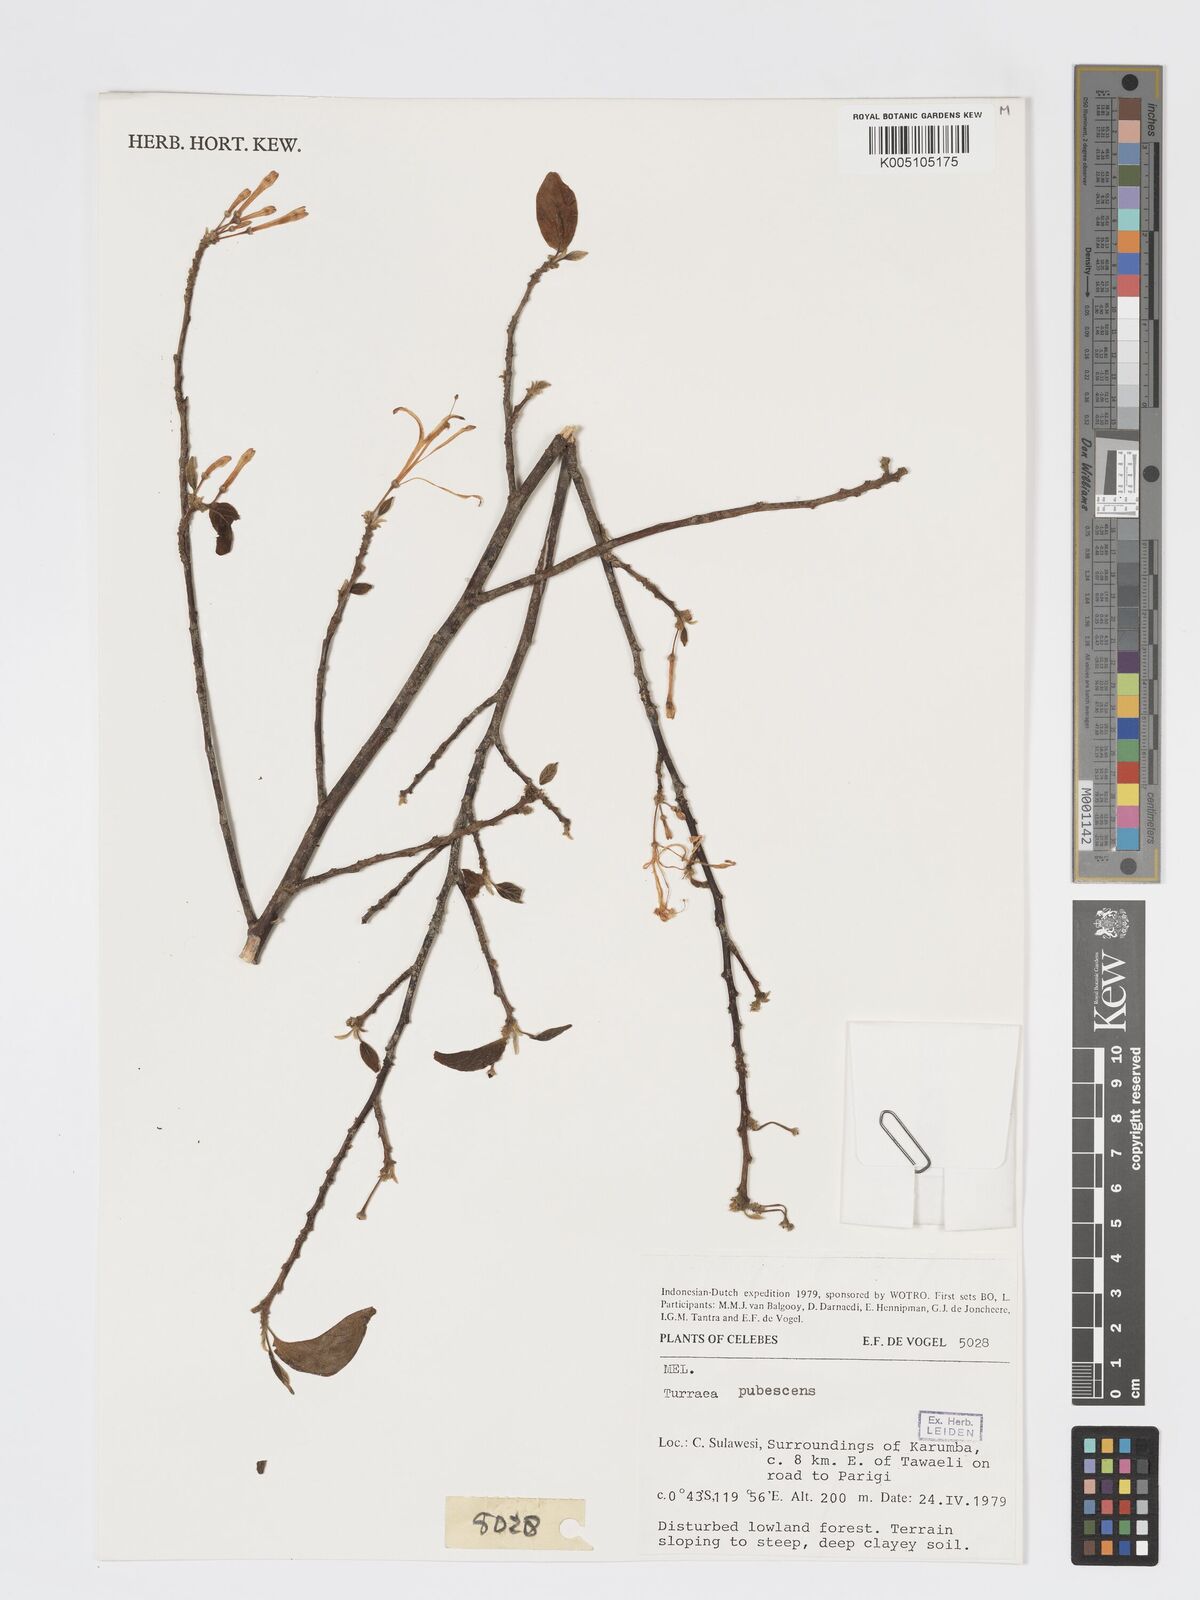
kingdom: Plantae
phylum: Tracheophyta
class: Magnoliopsida
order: Sapindales
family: Meliaceae
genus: Turraea
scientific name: Turraea
